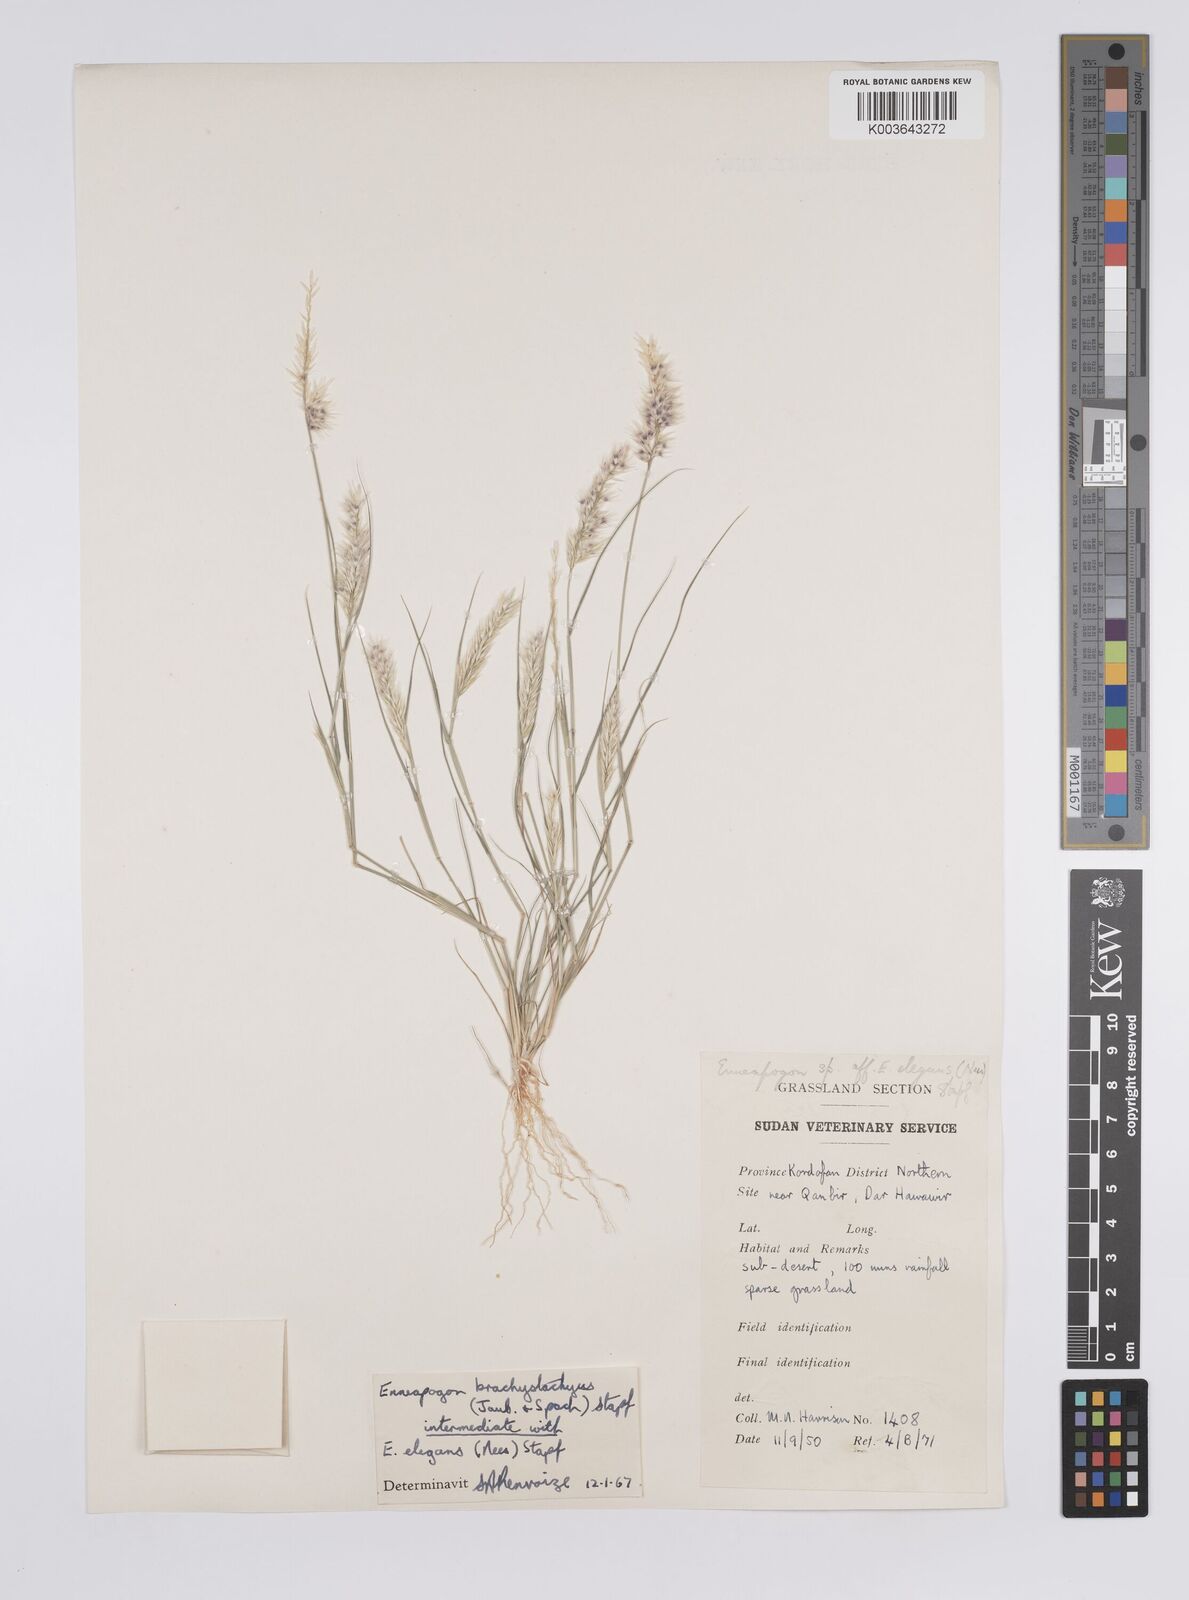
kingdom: Plantae
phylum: Tracheophyta
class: Liliopsida
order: Poales
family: Poaceae
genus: Enneapogon
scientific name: Enneapogon persicus
